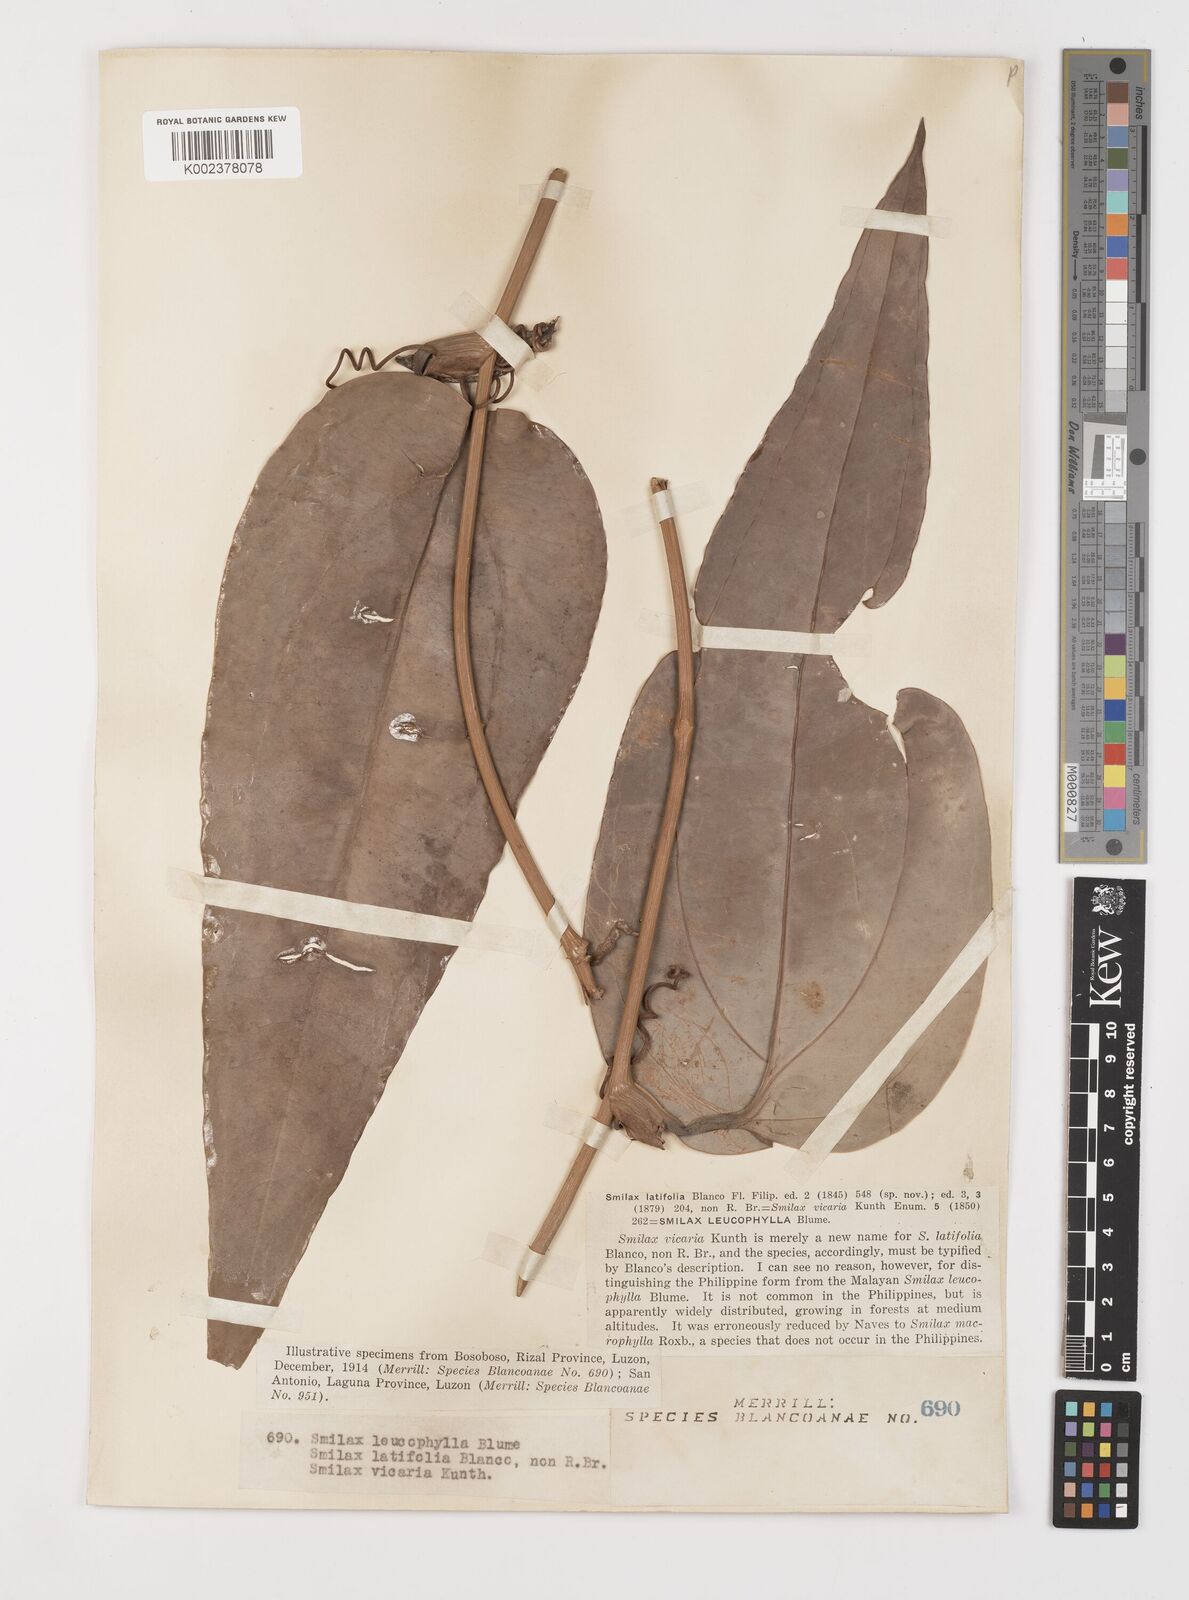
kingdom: Plantae
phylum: Tracheophyta
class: Liliopsida
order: Liliales
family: Smilacaceae
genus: Smilax
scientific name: Smilax leucophylla
